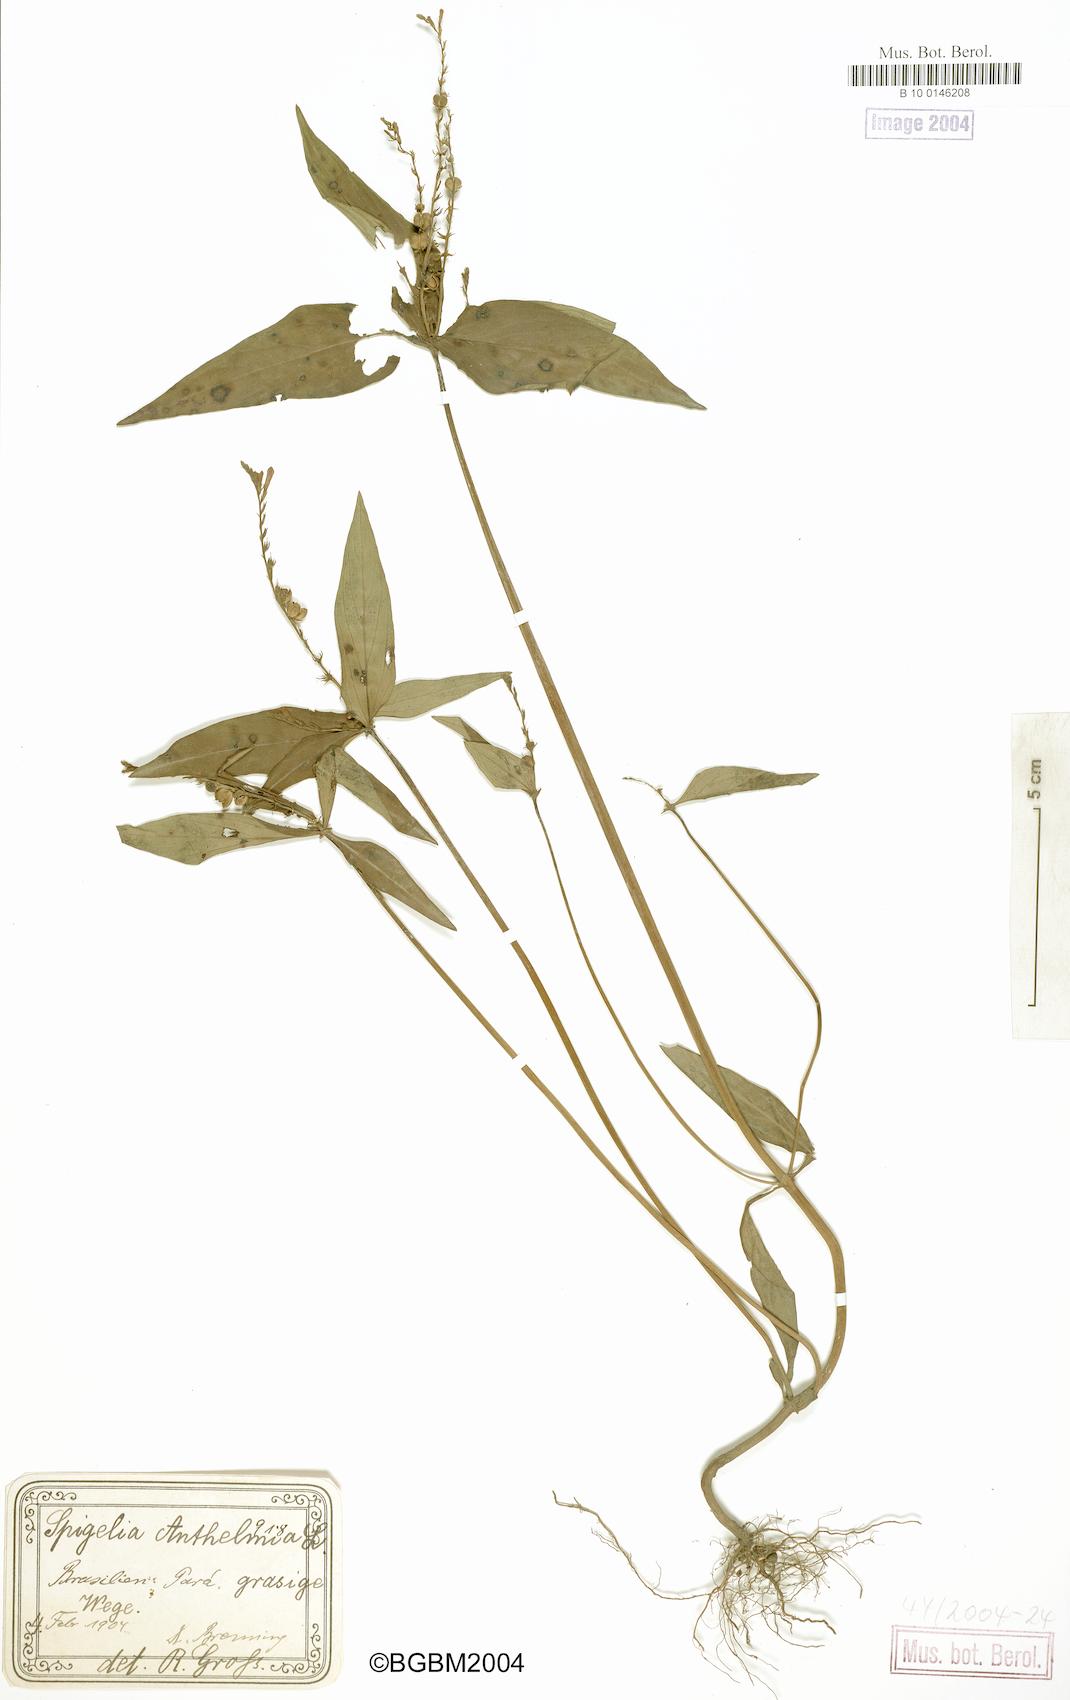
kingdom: Plantae
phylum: Tracheophyta
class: Magnoliopsida
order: Gentianales
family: Loganiaceae
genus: Spigelia
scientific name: Spigelia anthelmia
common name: West indian-pink
